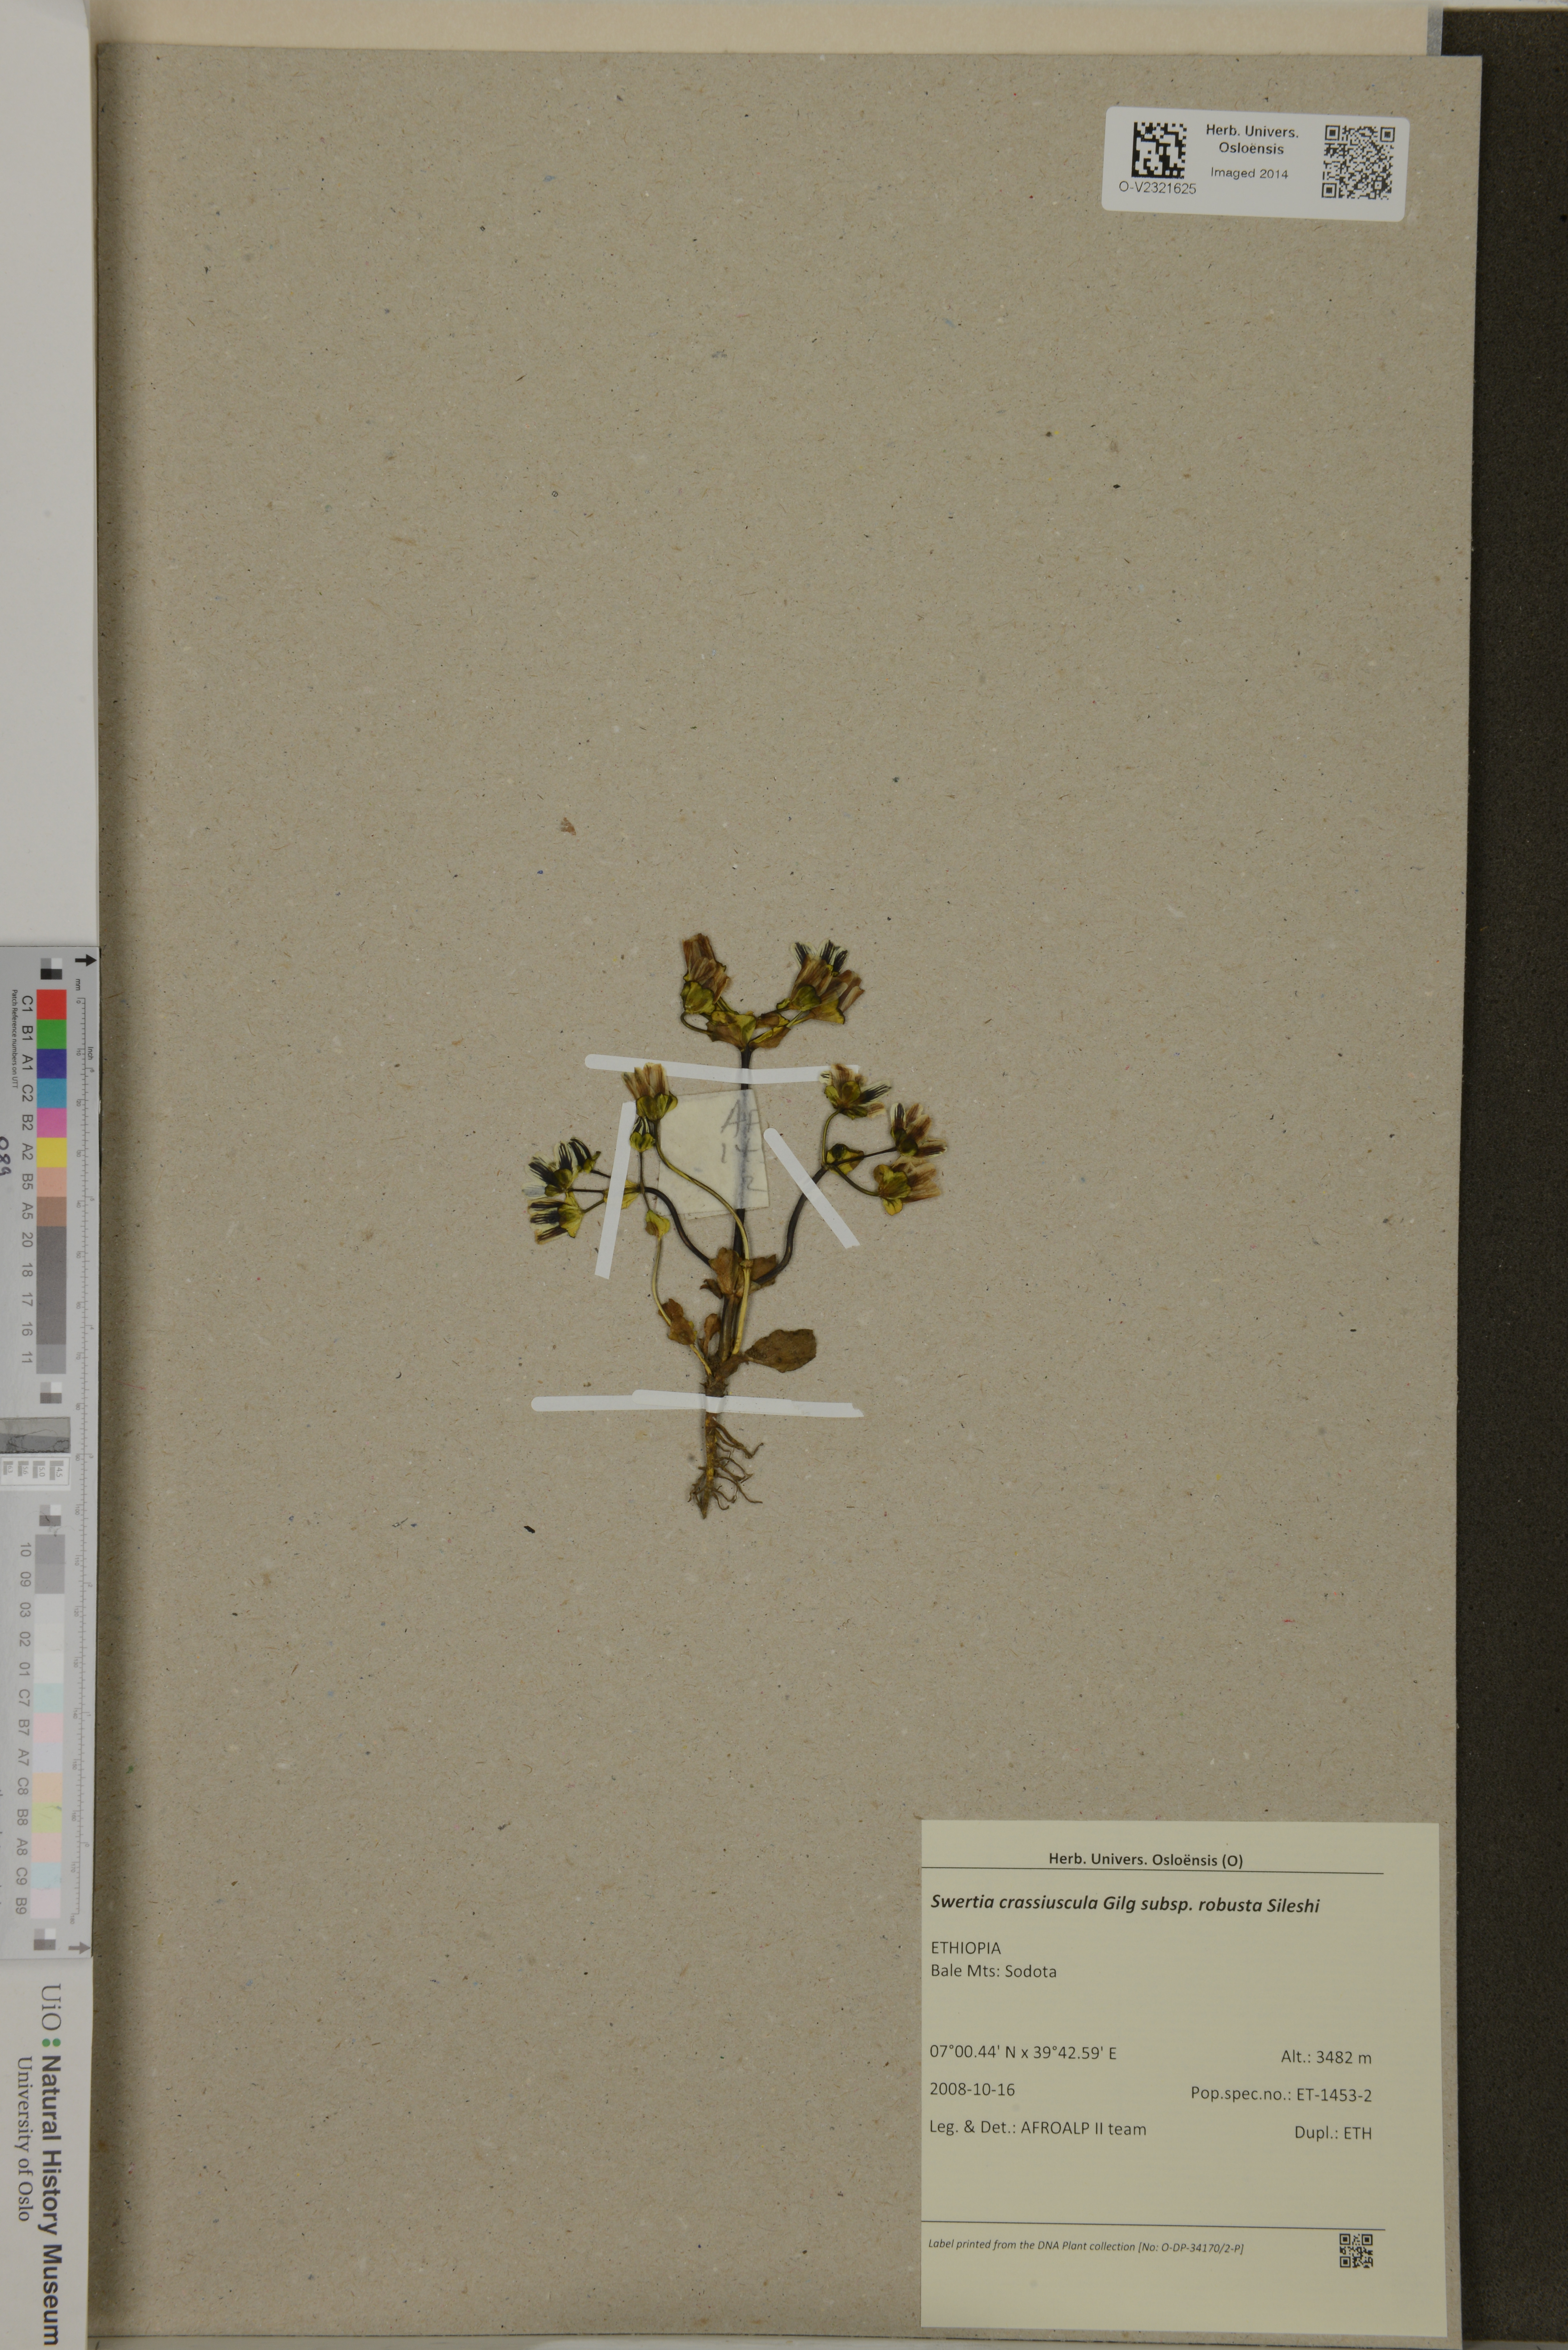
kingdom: Plantae
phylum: Tracheophyta
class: Magnoliopsida
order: Gentianales
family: Gentianaceae
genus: Swertia
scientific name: Swertia crassiuscula
